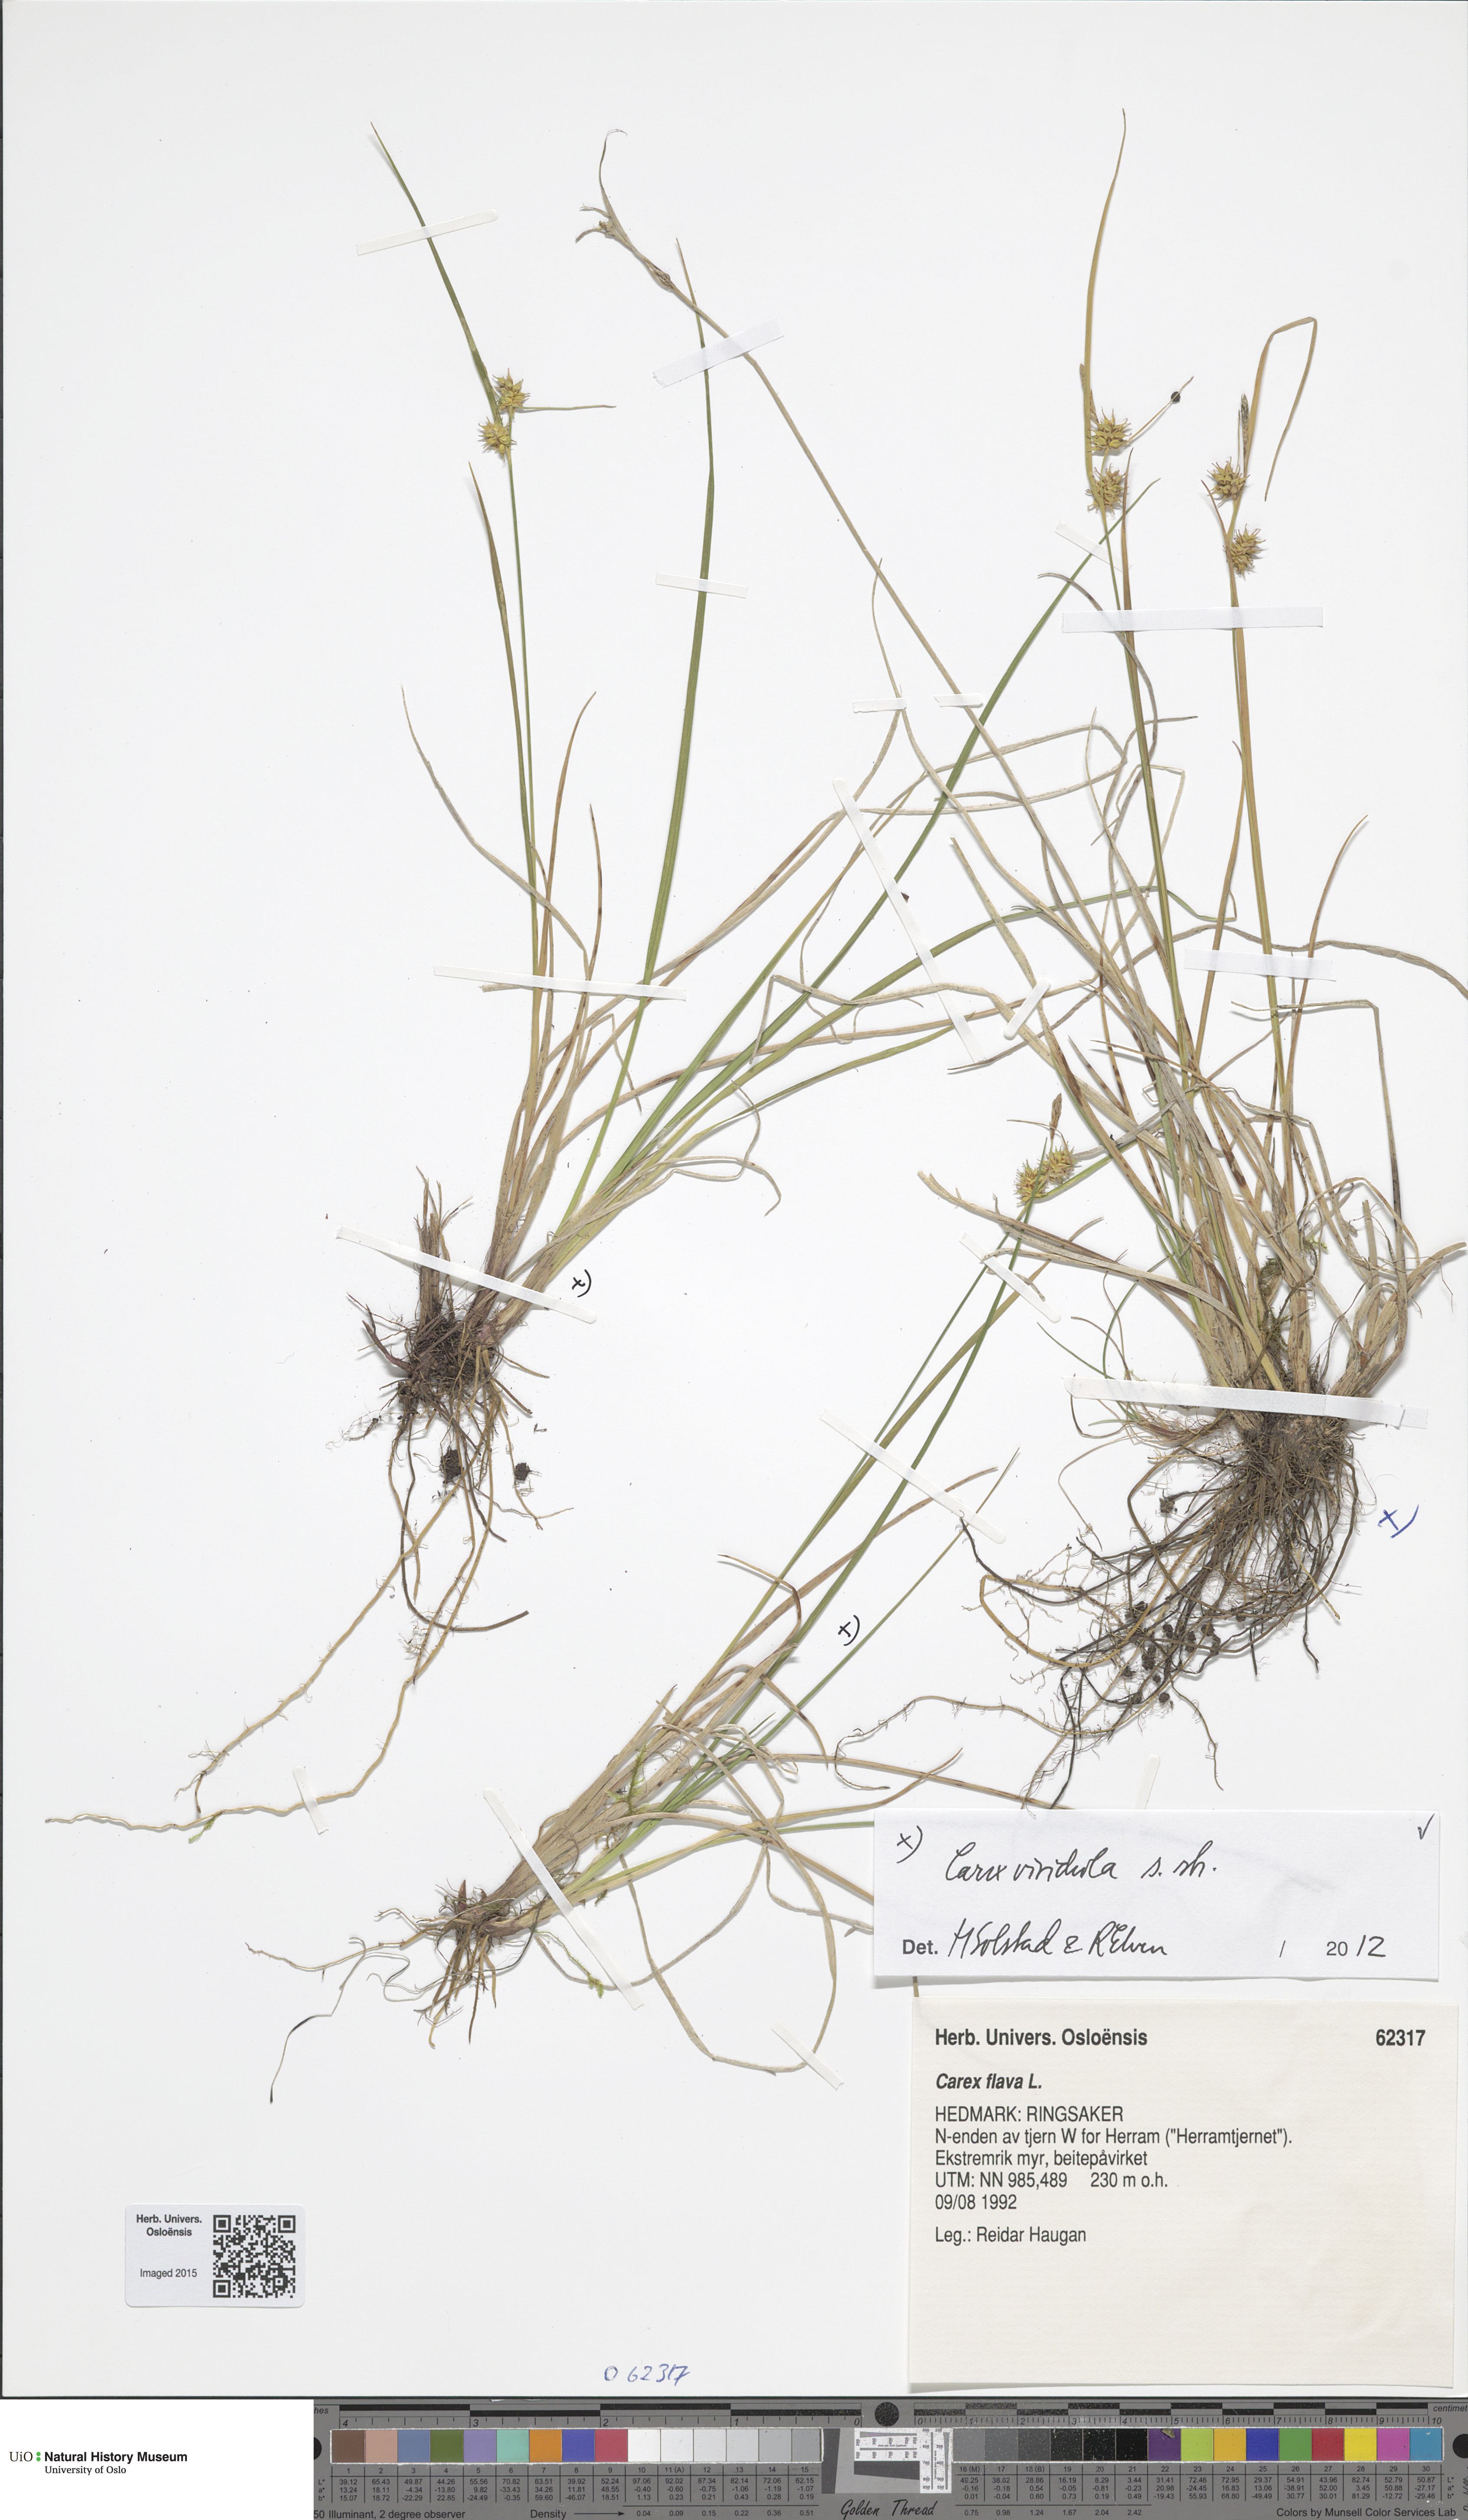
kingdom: Plantae
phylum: Tracheophyta
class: Liliopsida
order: Poales
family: Cyperaceae
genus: Carex
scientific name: Carex oederi
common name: Common & small-fruited yellow-sedge
